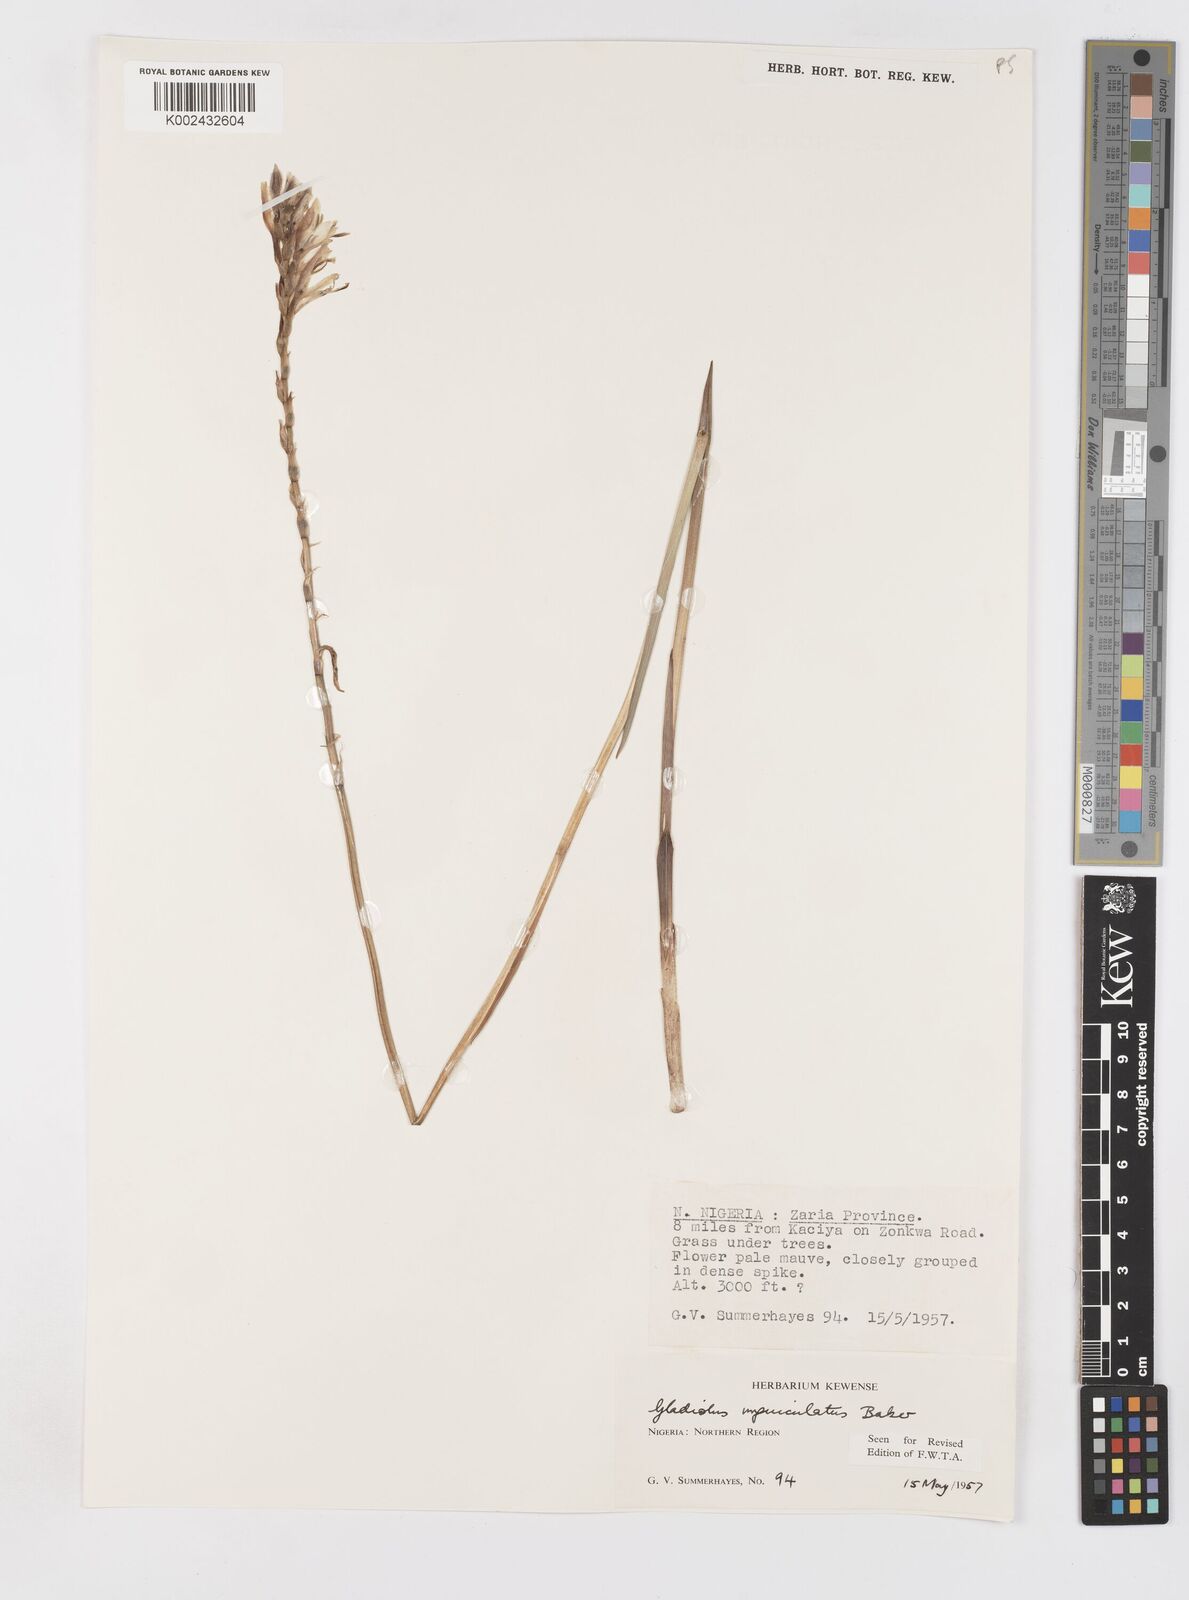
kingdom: Plantae
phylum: Tracheophyta
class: Liliopsida
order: Asparagales
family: Iridaceae
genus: Gladiolus
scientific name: Gladiolus unguiculatus
